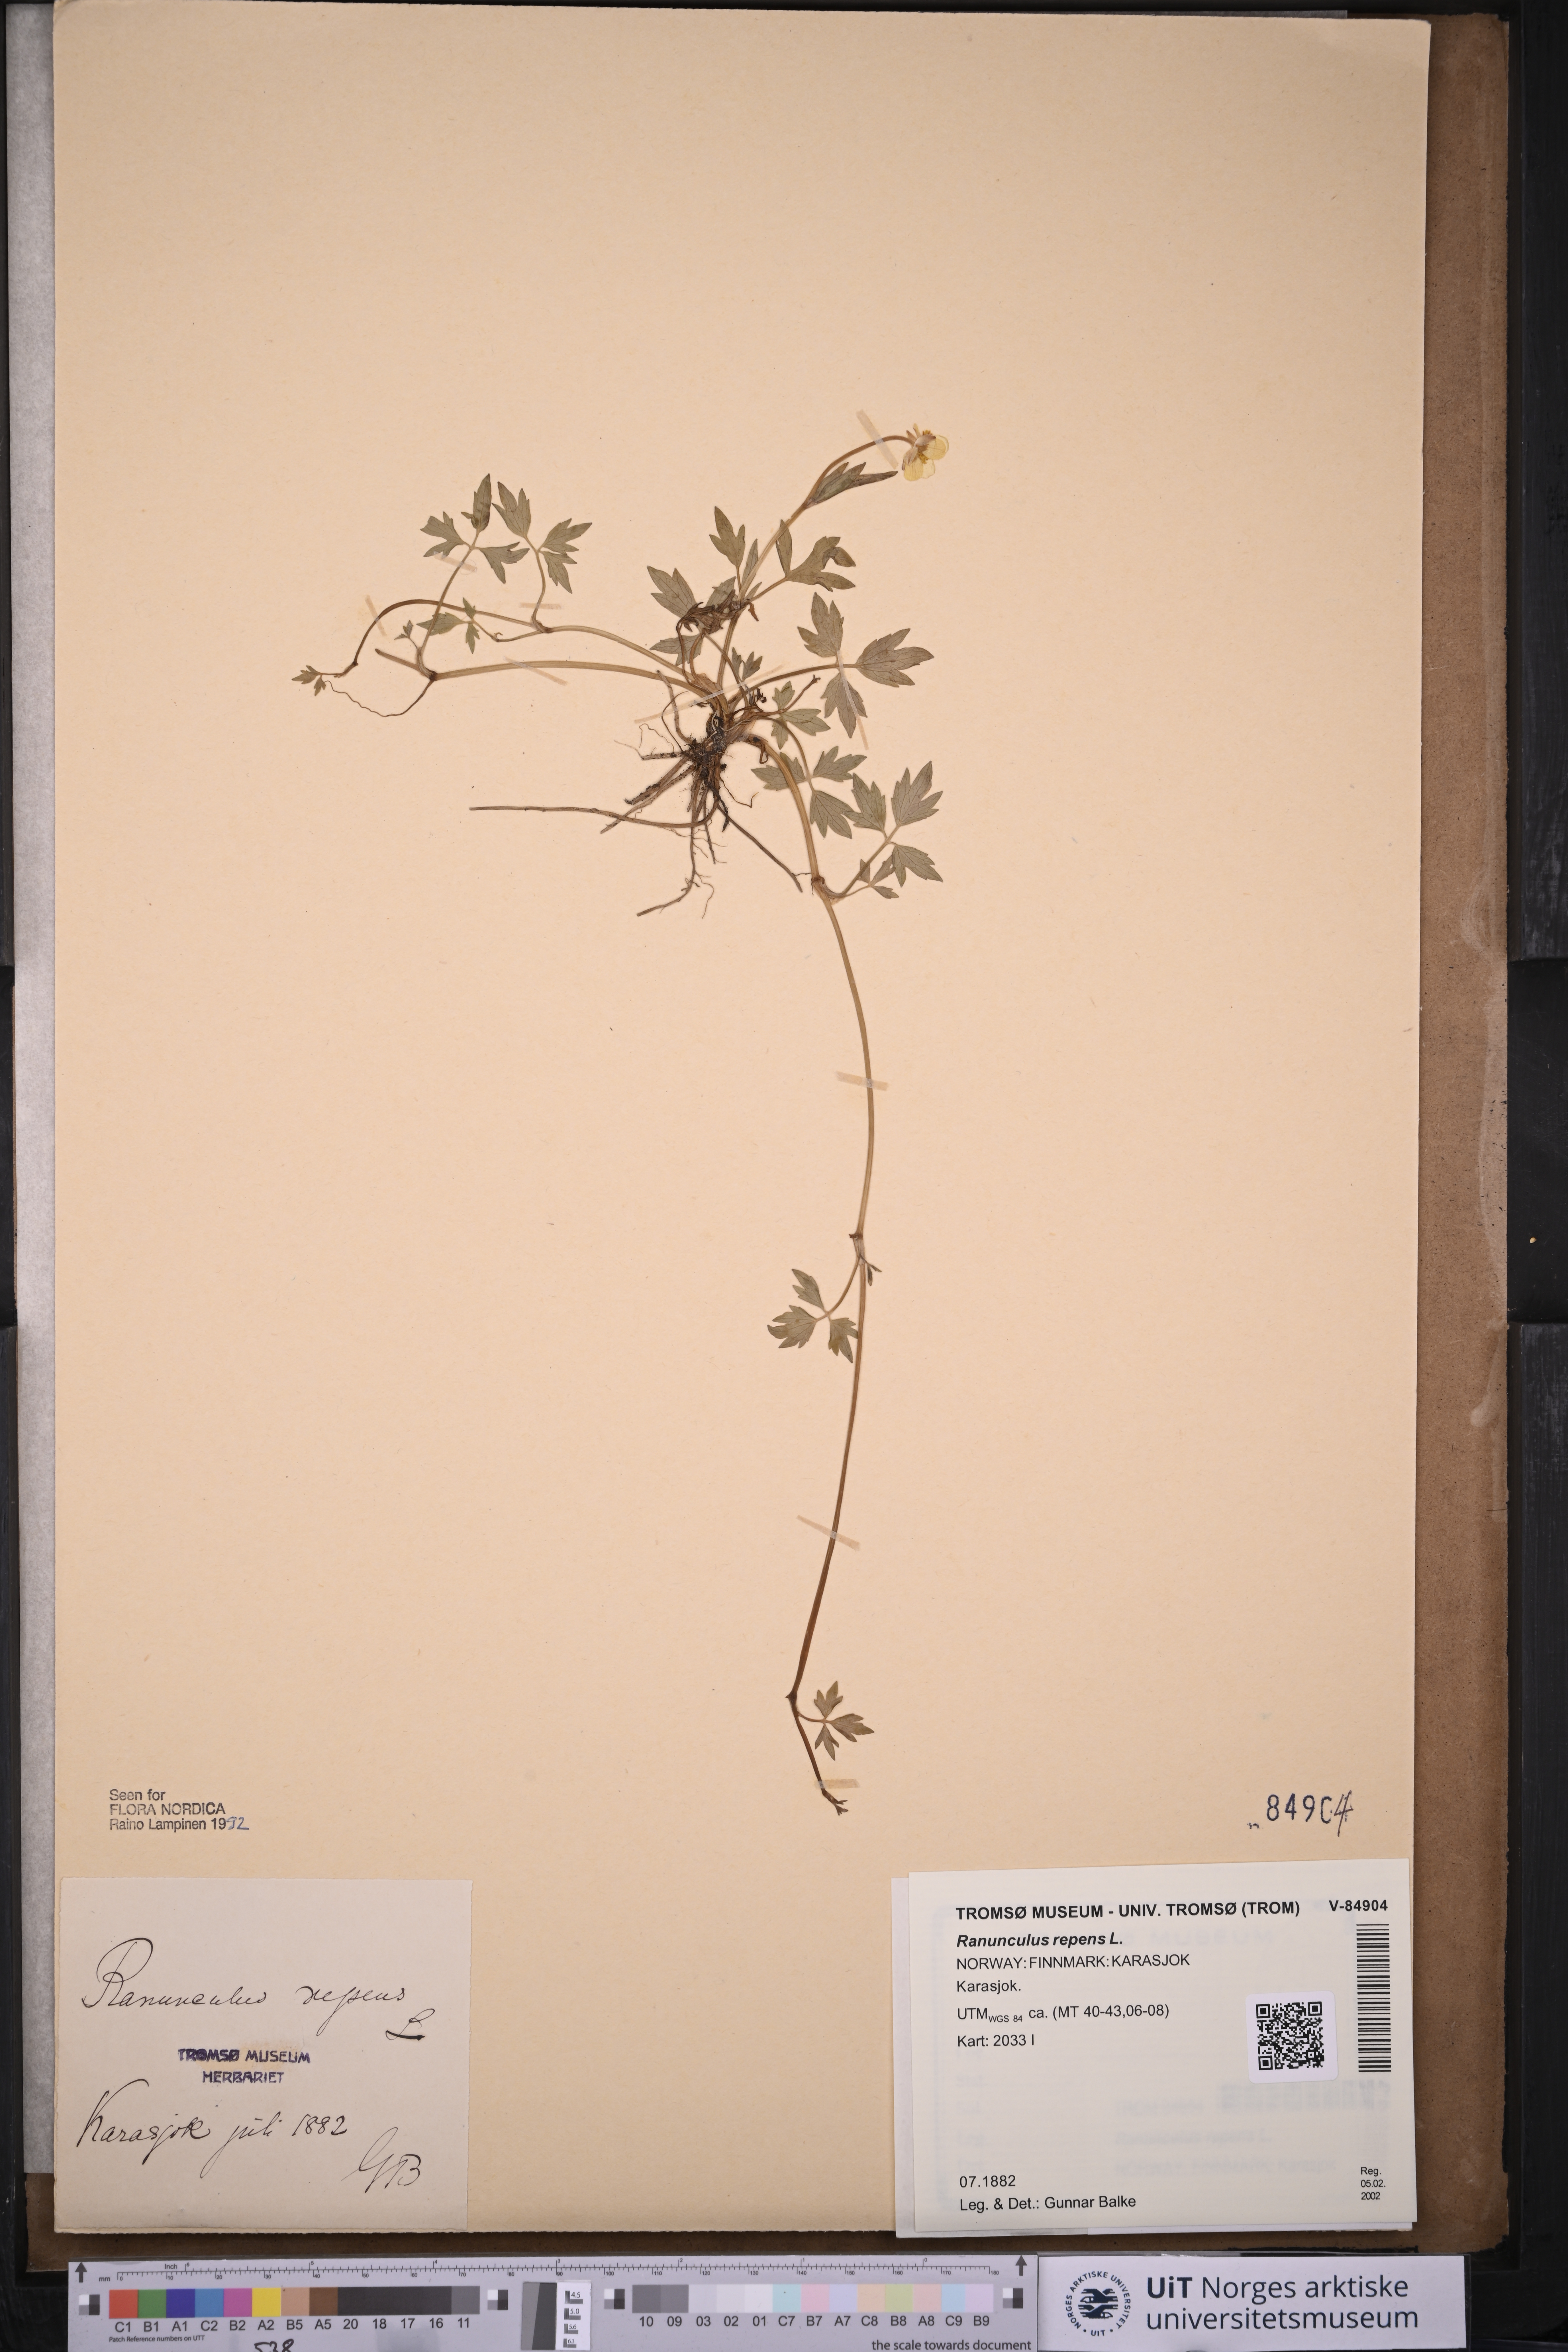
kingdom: Plantae
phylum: Tracheophyta
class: Magnoliopsida
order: Ranunculales
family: Ranunculaceae
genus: Ranunculus
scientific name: Ranunculus repens
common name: Creeping buttercup
